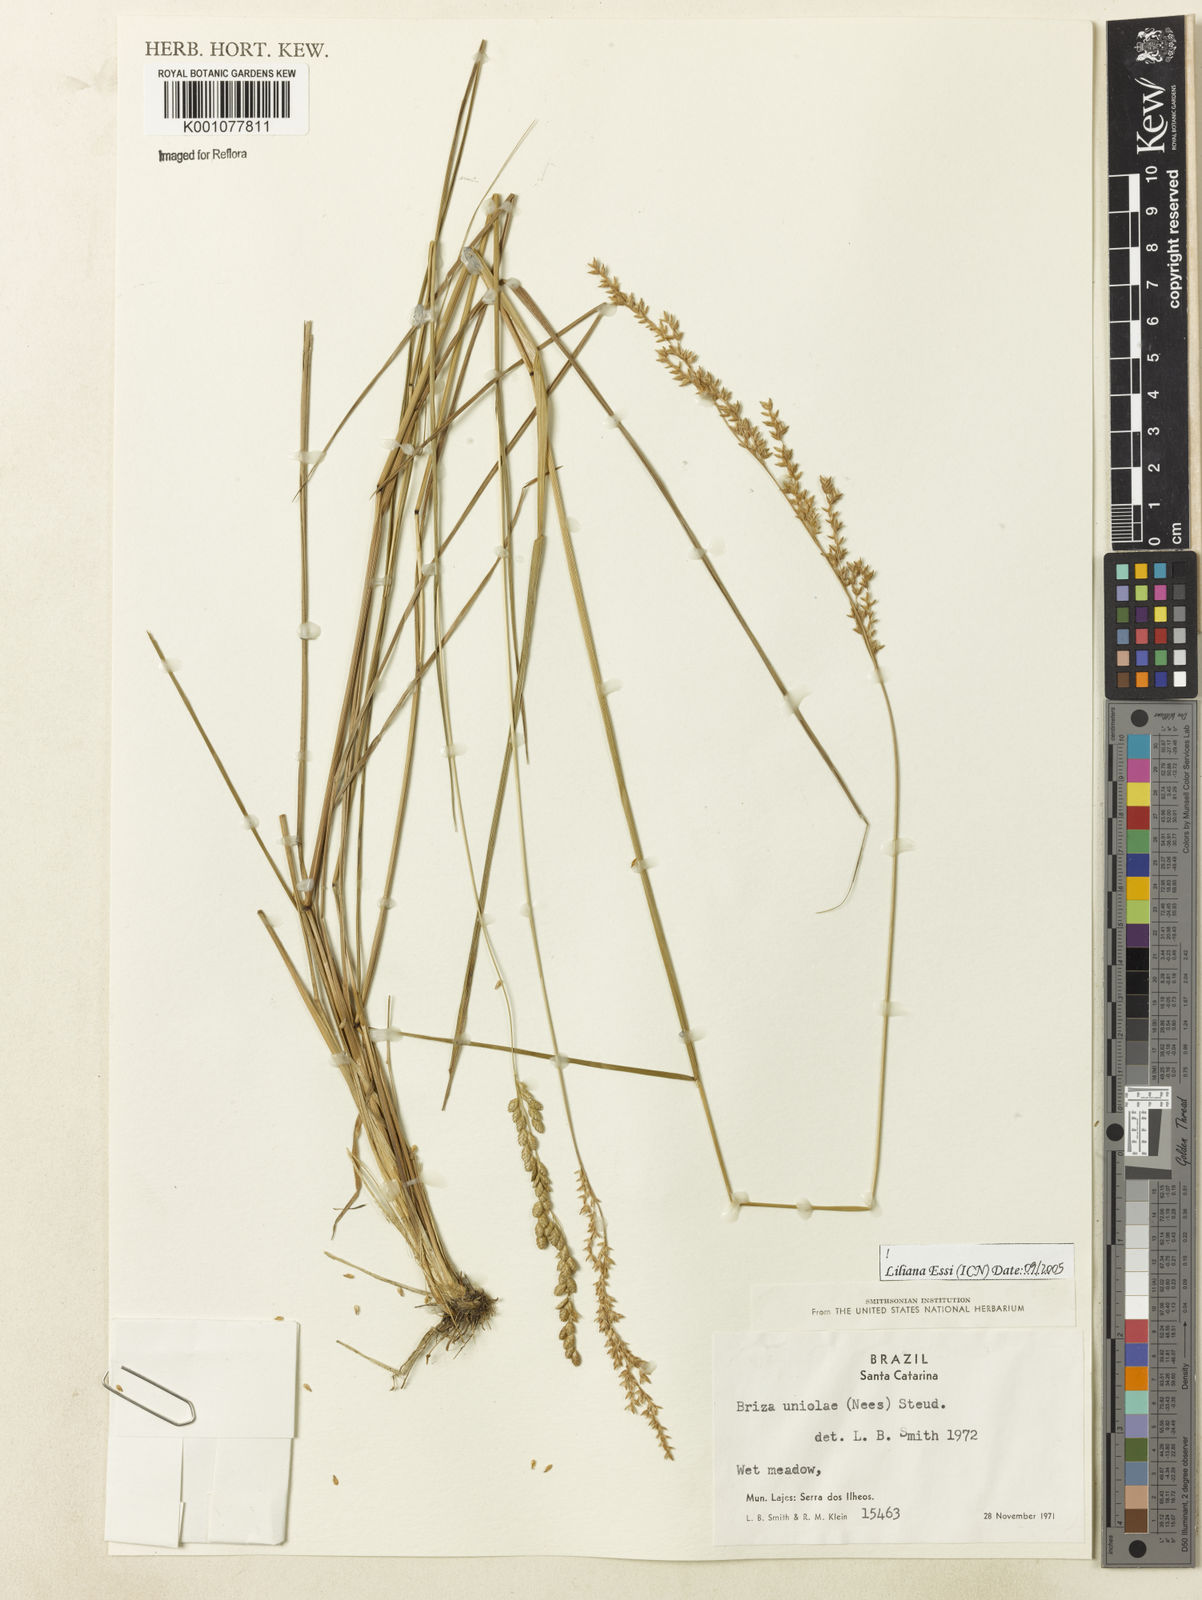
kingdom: Plantae
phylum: Tracheophyta
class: Liliopsida
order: Poales
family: Poaceae
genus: Poidium
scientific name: Poidium uniolae
